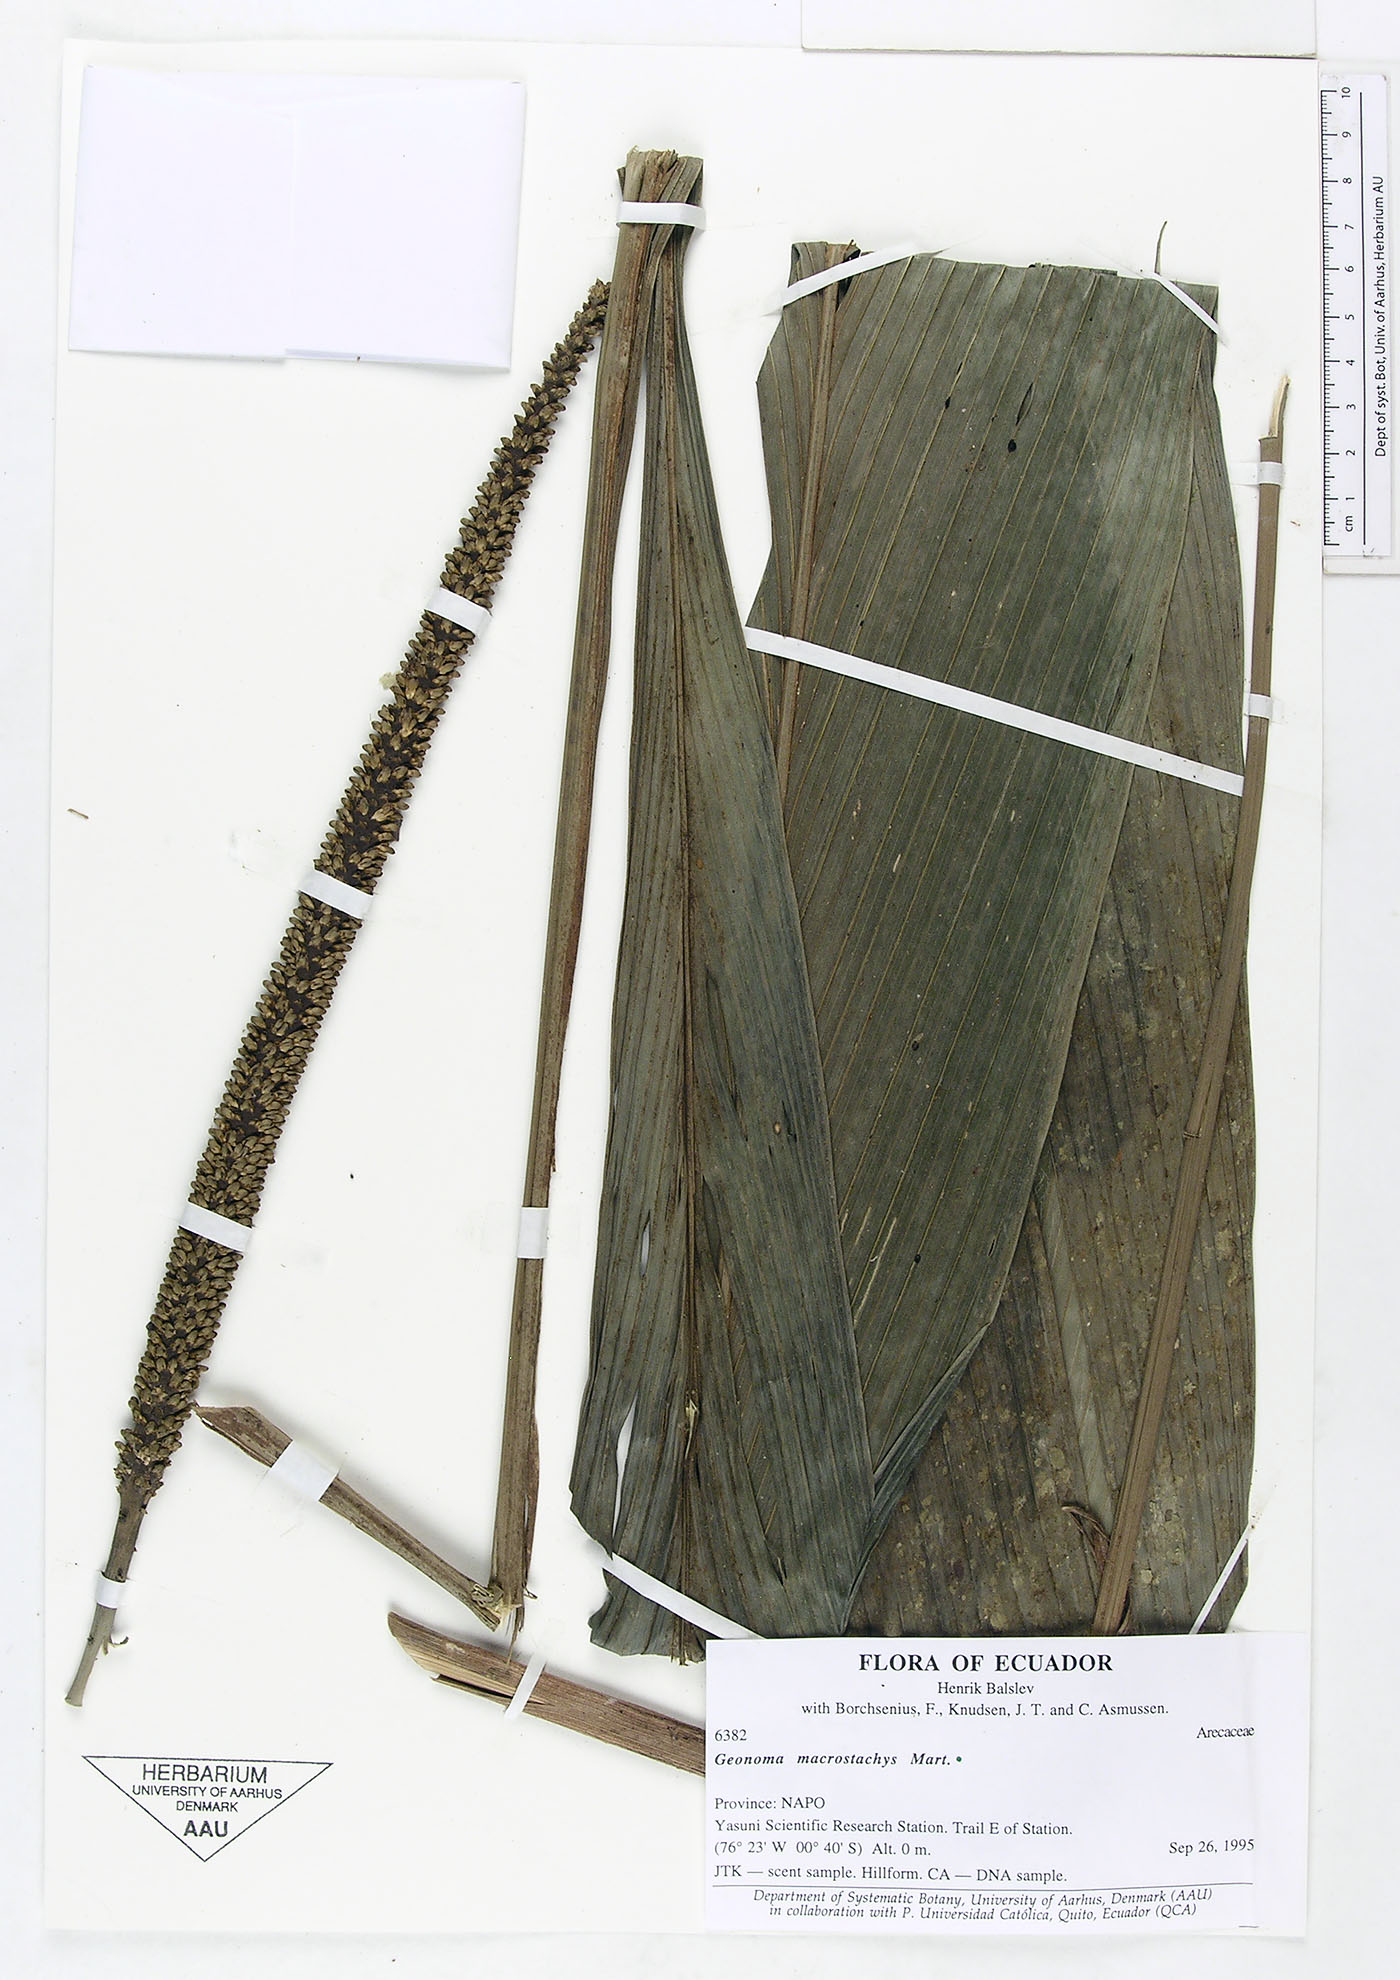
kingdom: Plantae
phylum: Tracheophyta
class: Liliopsida
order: Arecales
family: Arecaceae
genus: Geonoma
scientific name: Geonoma macrostachys
